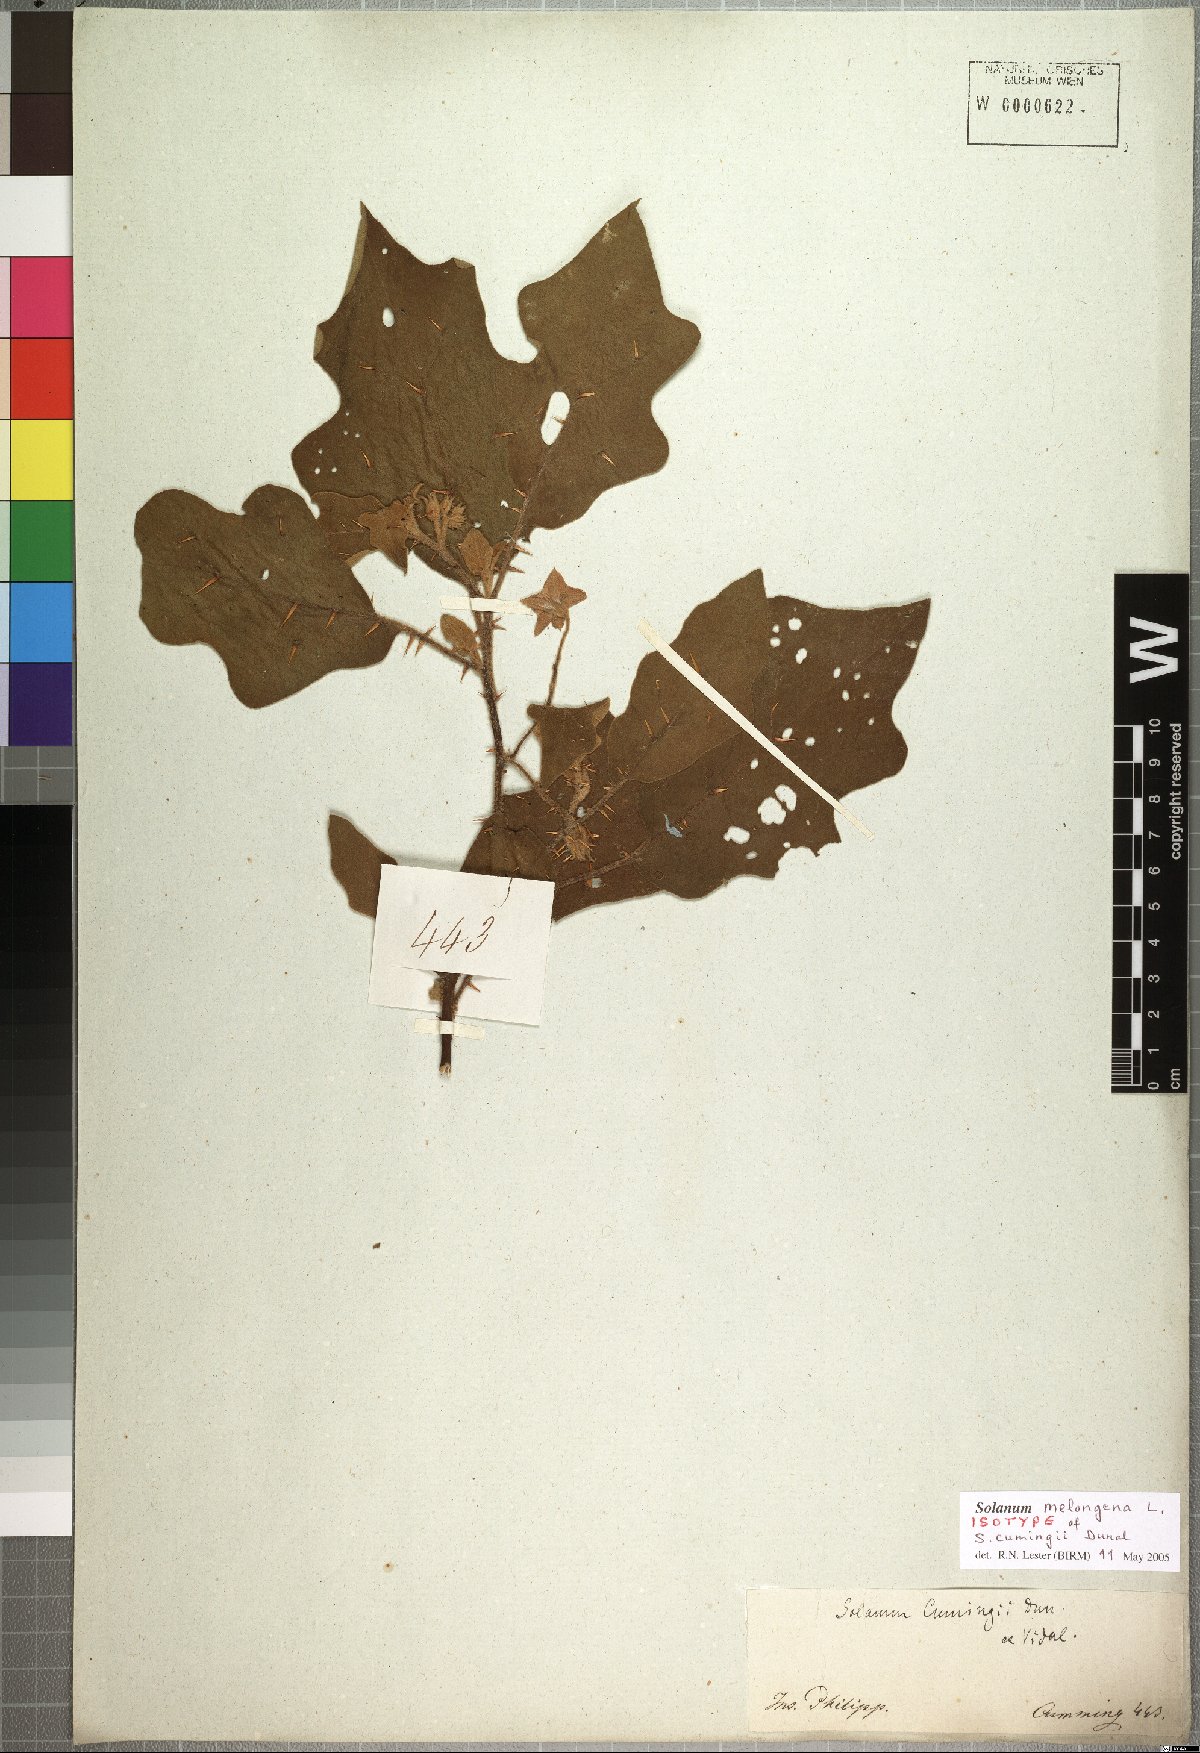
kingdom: Plantae
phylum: Tracheophyta
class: Magnoliopsida
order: Solanales
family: Solanaceae
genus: Solanum
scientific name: Solanum insanum
